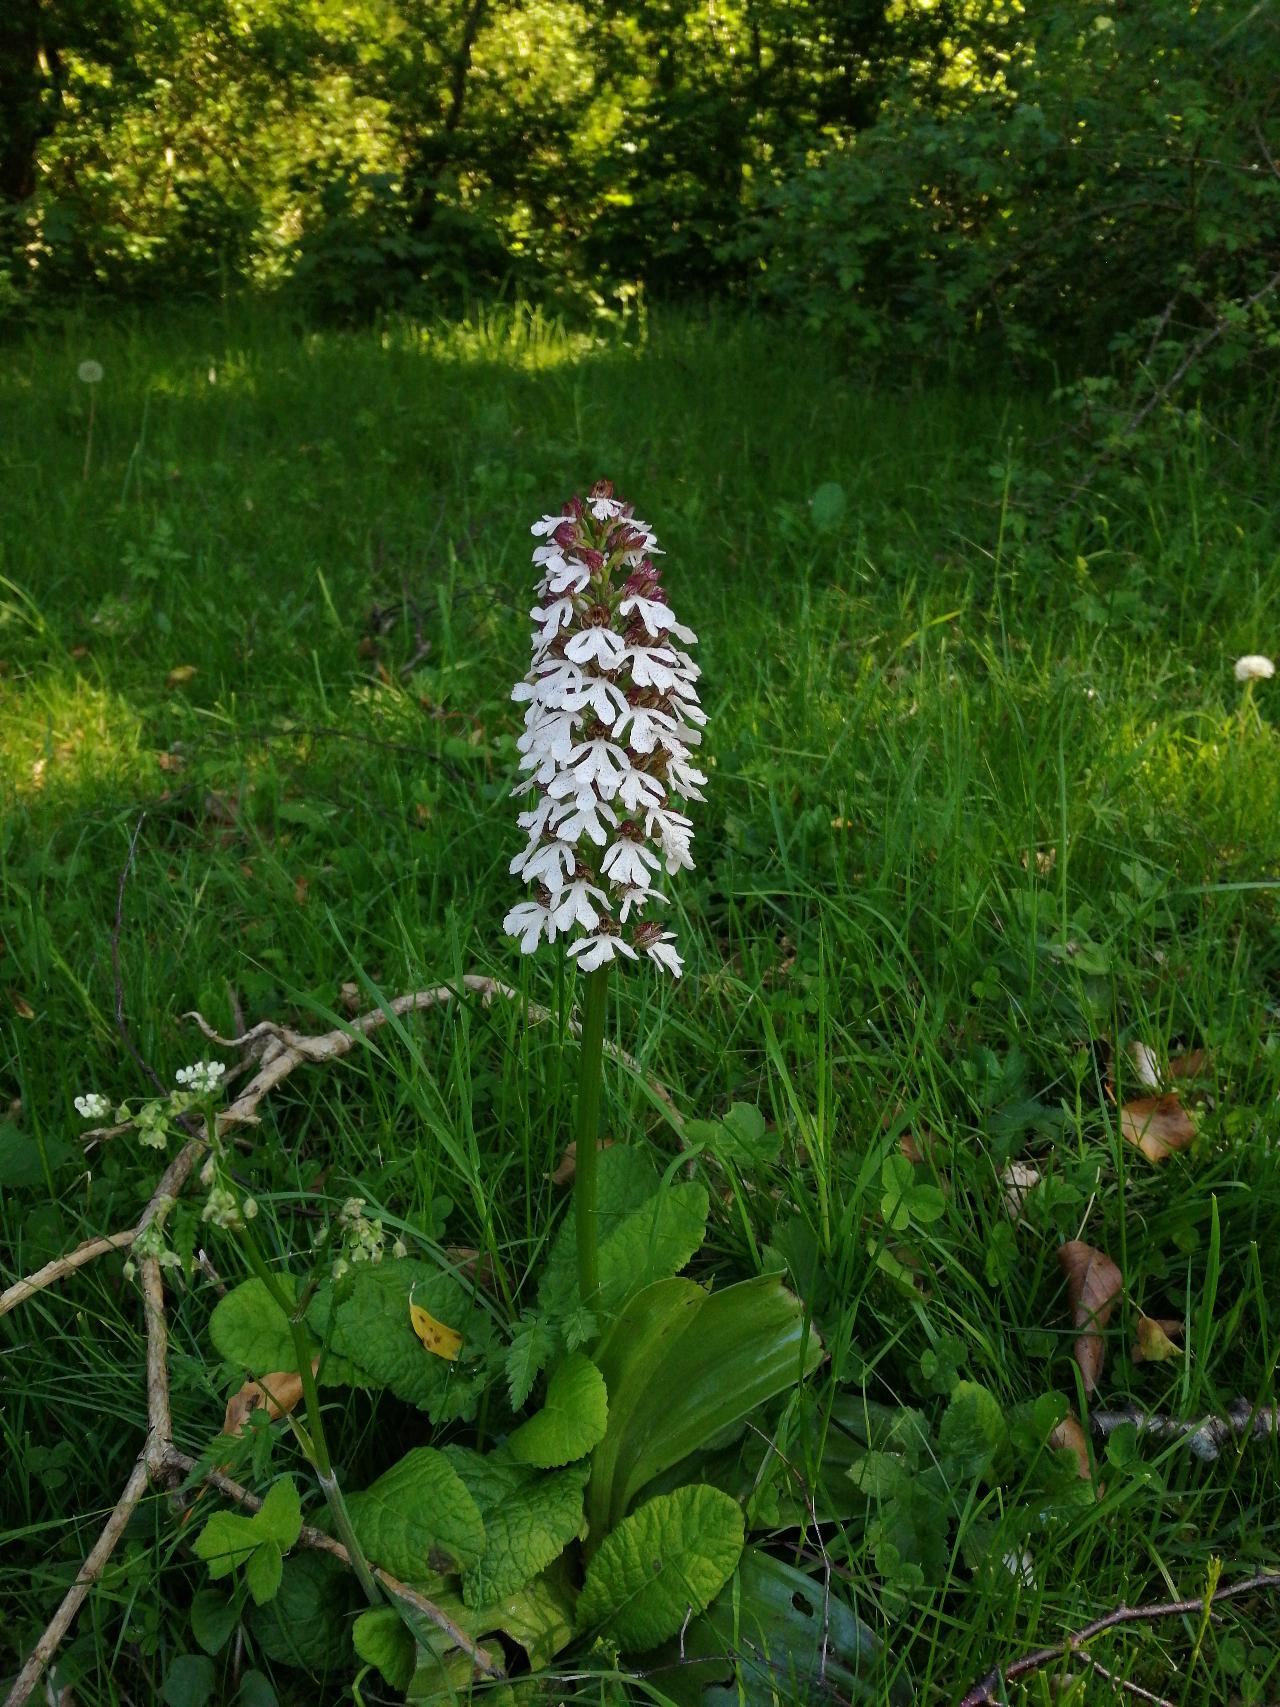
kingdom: Plantae
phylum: Tracheophyta
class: Liliopsida
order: Asparagales
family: Orchidaceae
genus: Orchis
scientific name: Orchis purpurea
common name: Stor gøgeurt
